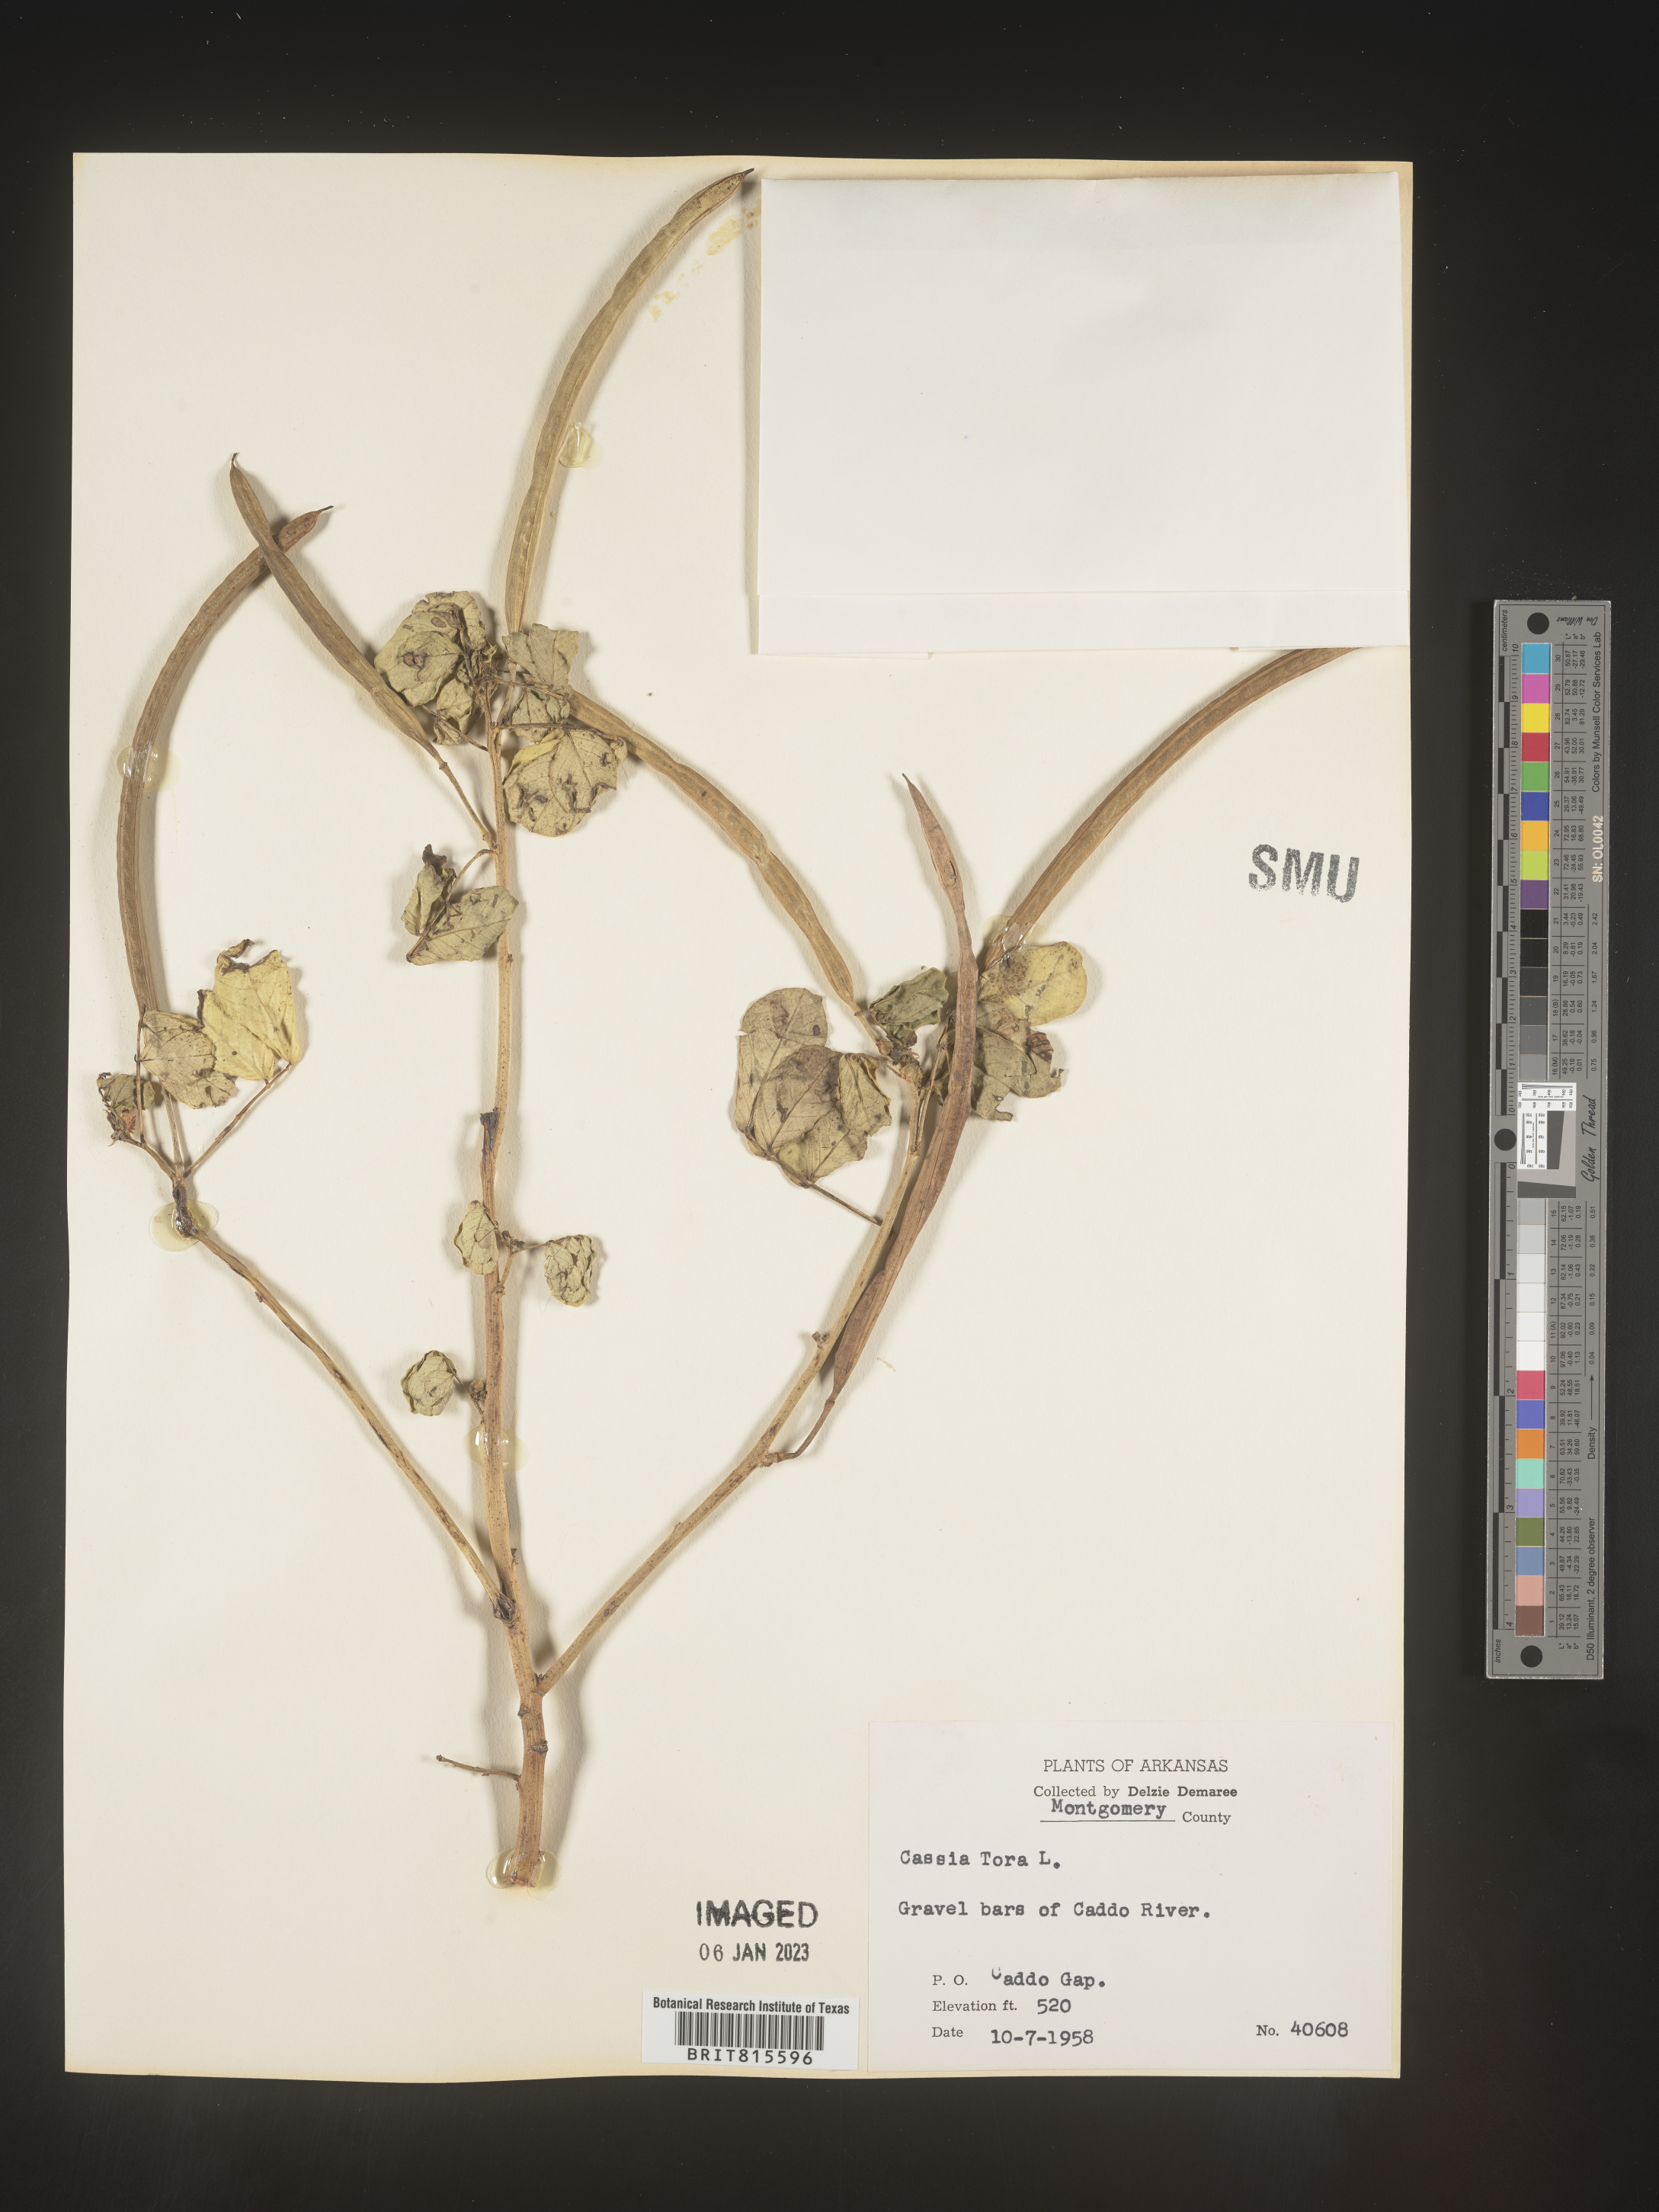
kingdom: Plantae
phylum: Tracheophyta
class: Magnoliopsida
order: Fabales
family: Fabaceae
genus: Senna
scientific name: Senna tora
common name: Sickle senna
